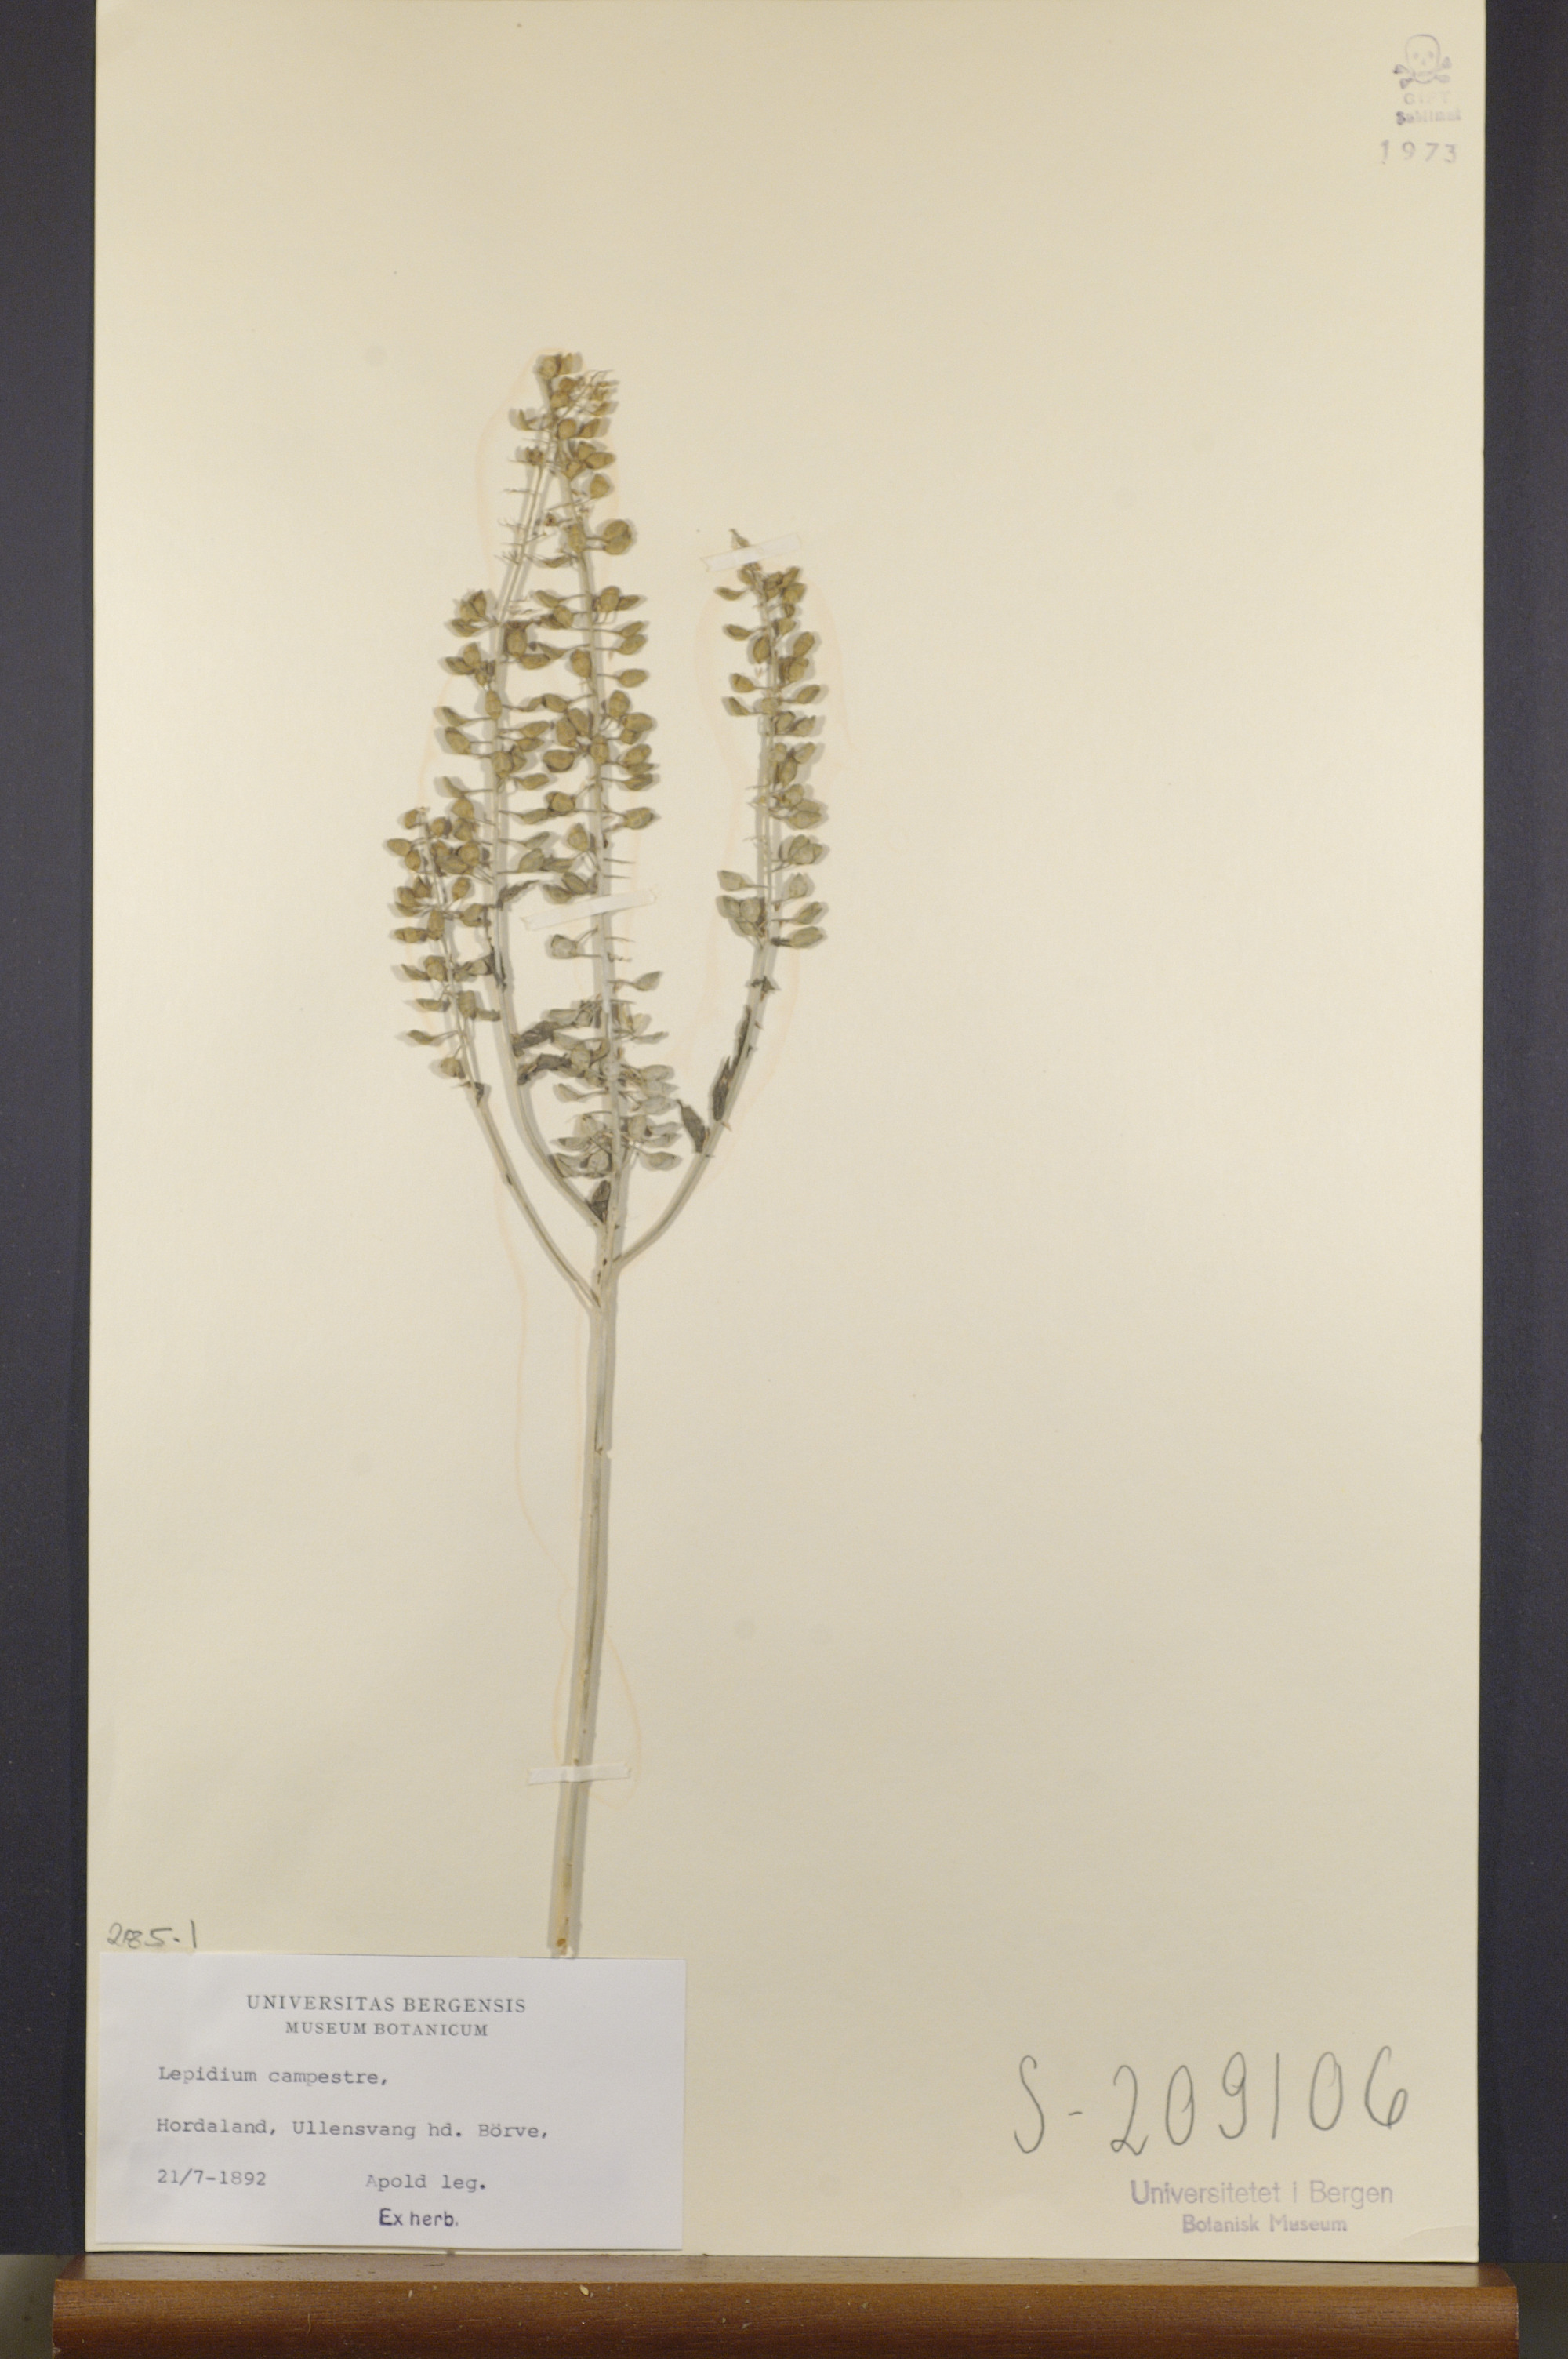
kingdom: Plantae
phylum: Tracheophyta
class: Magnoliopsida
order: Brassicales
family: Brassicaceae
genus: Lepidium
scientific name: Lepidium campestre
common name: Field pepperwort
